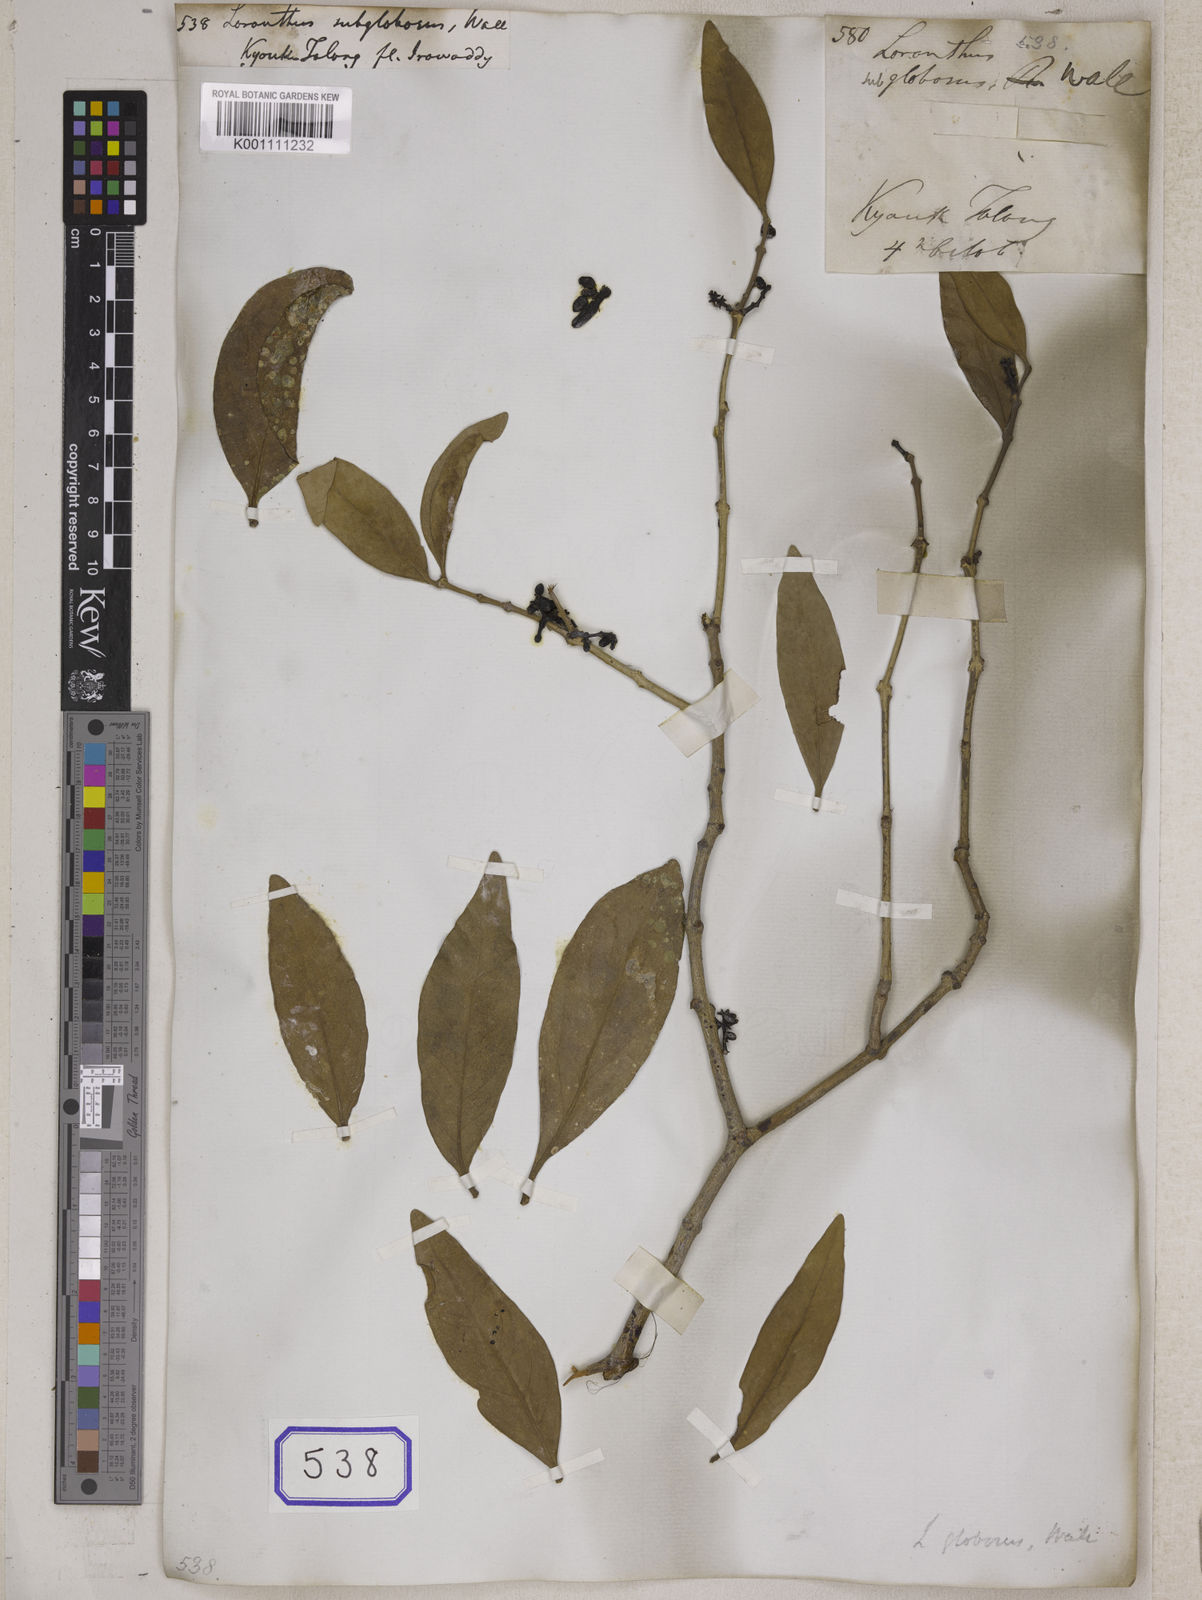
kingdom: Plantae
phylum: Tracheophyta
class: Magnoliopsida
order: Santalales
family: Loranthaceae
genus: Macrosolen
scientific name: Macrosolen globosus
